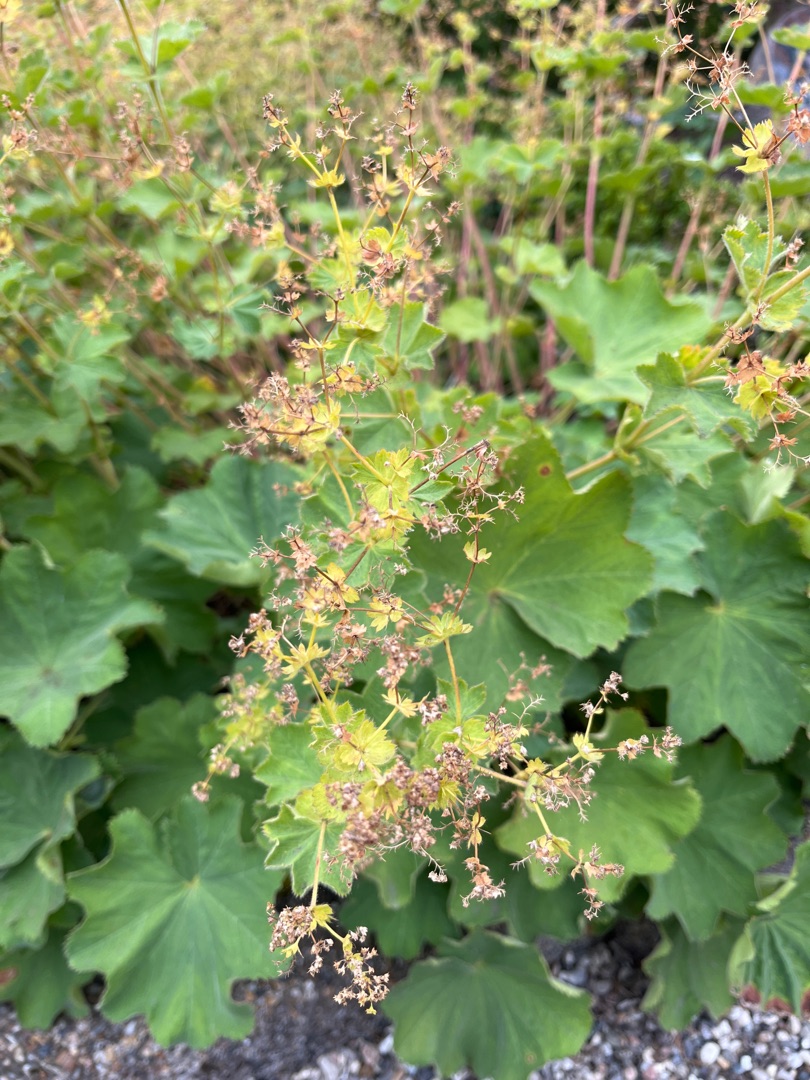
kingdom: Plantae
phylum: Tracheophyta
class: Magnoliopsida
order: Rosales
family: Rosaceae
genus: Alchemilla
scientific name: Alchemilla mollis
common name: Lådden løvefod
